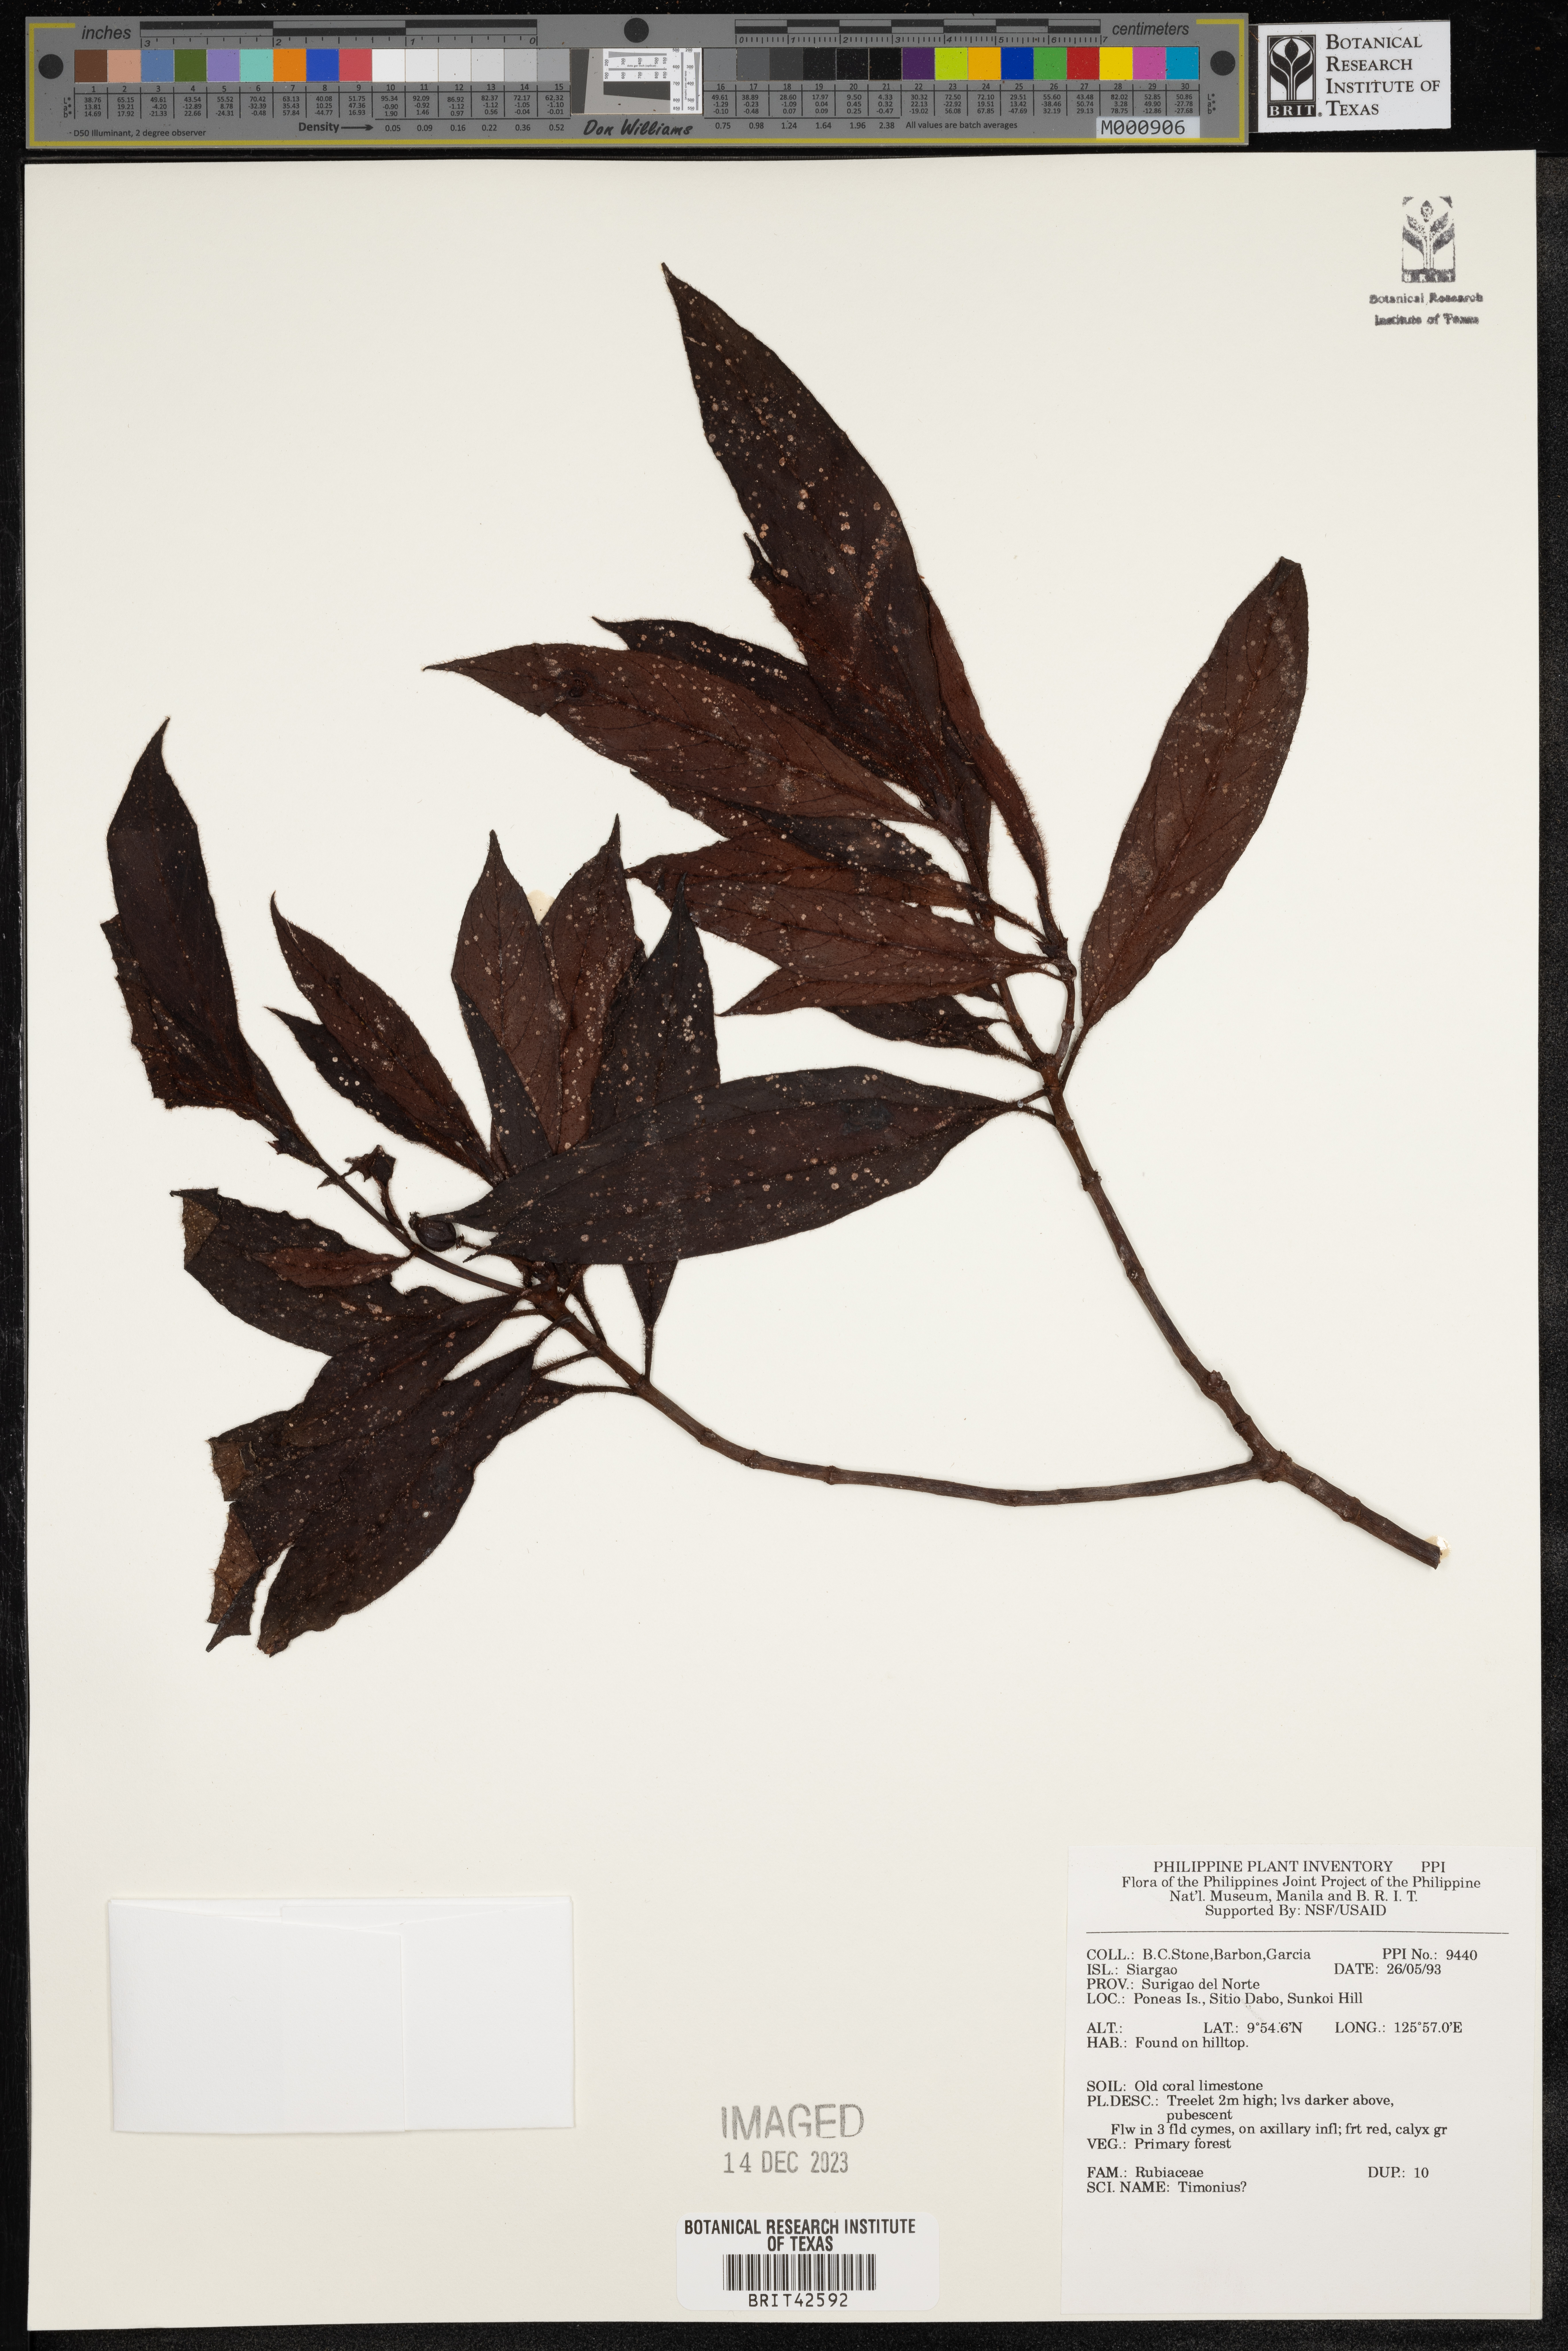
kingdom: Plantae
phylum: Tracheophyta
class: Magnoliopsida
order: Gentianales
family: Rubiaceae
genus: Timonius
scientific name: Timonius
